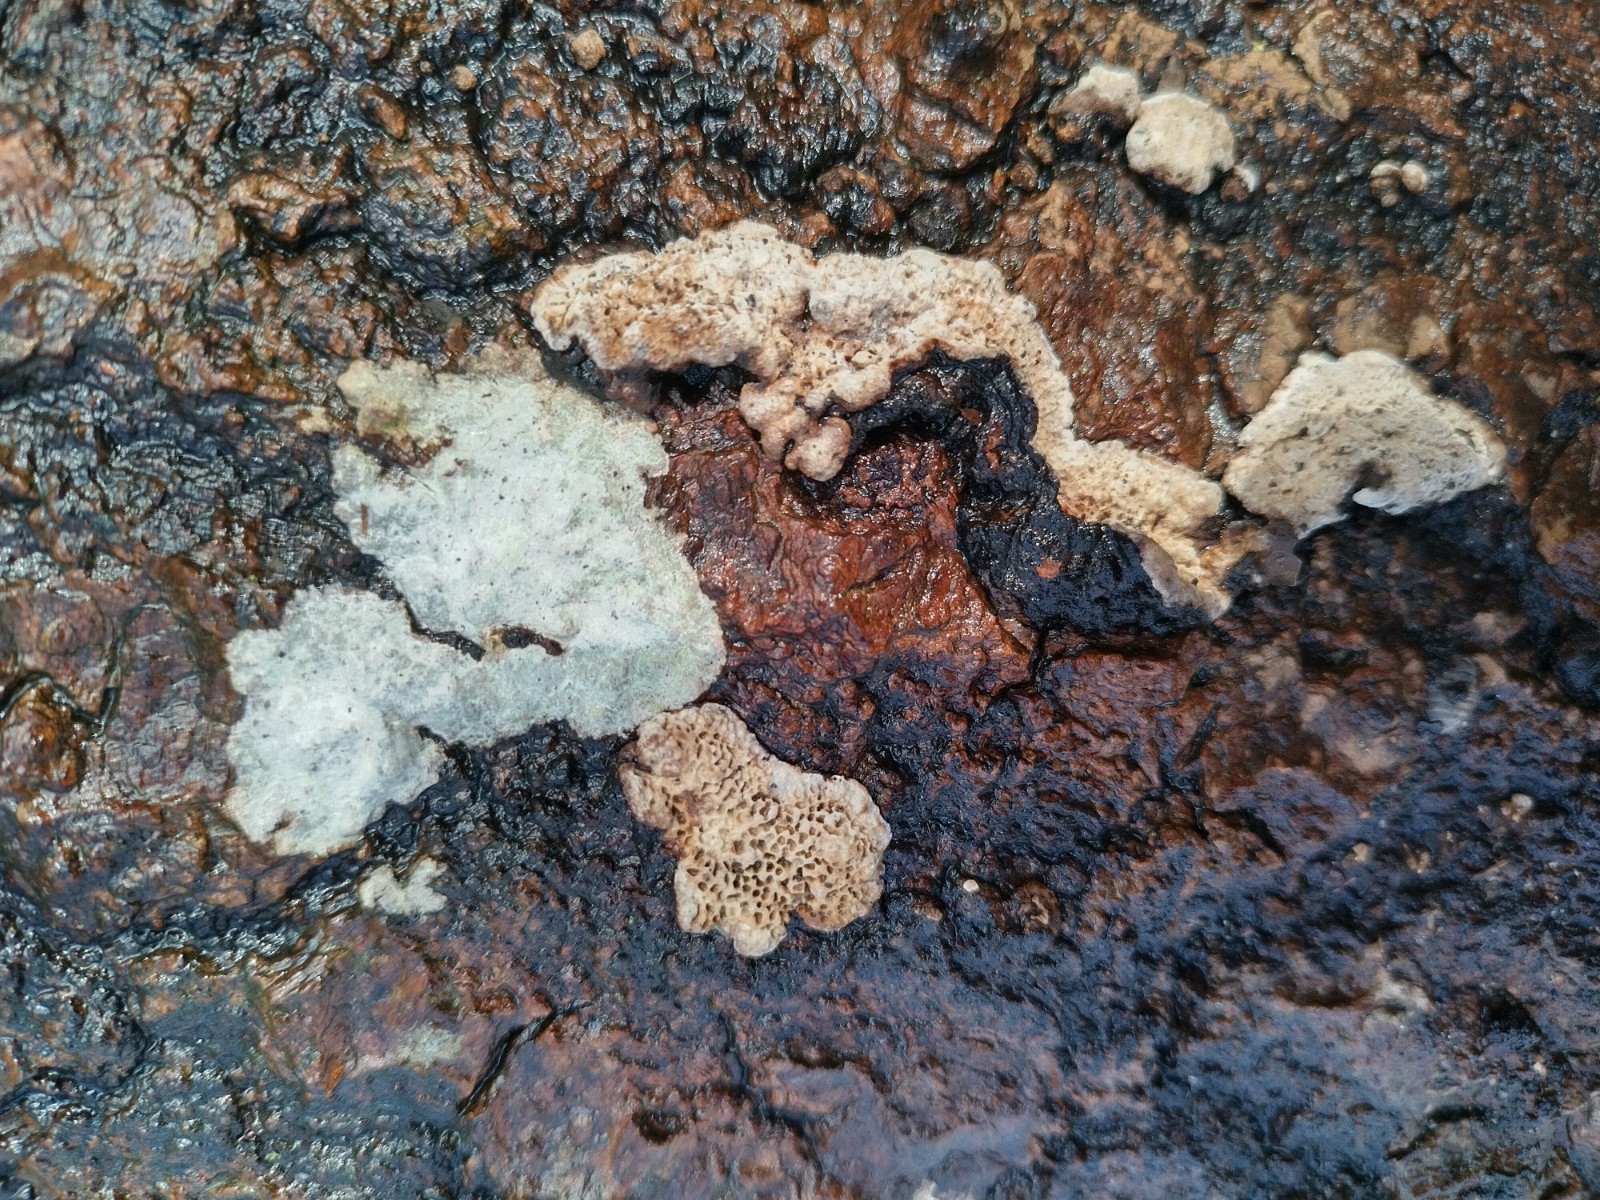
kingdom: Fungi
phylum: Basidiomycota
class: Agaricomycetes
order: Russulales
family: Bondarzewiaceae
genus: Heterobasidion
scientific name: Heterobasidion annosum
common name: almindelig rodfordærver
